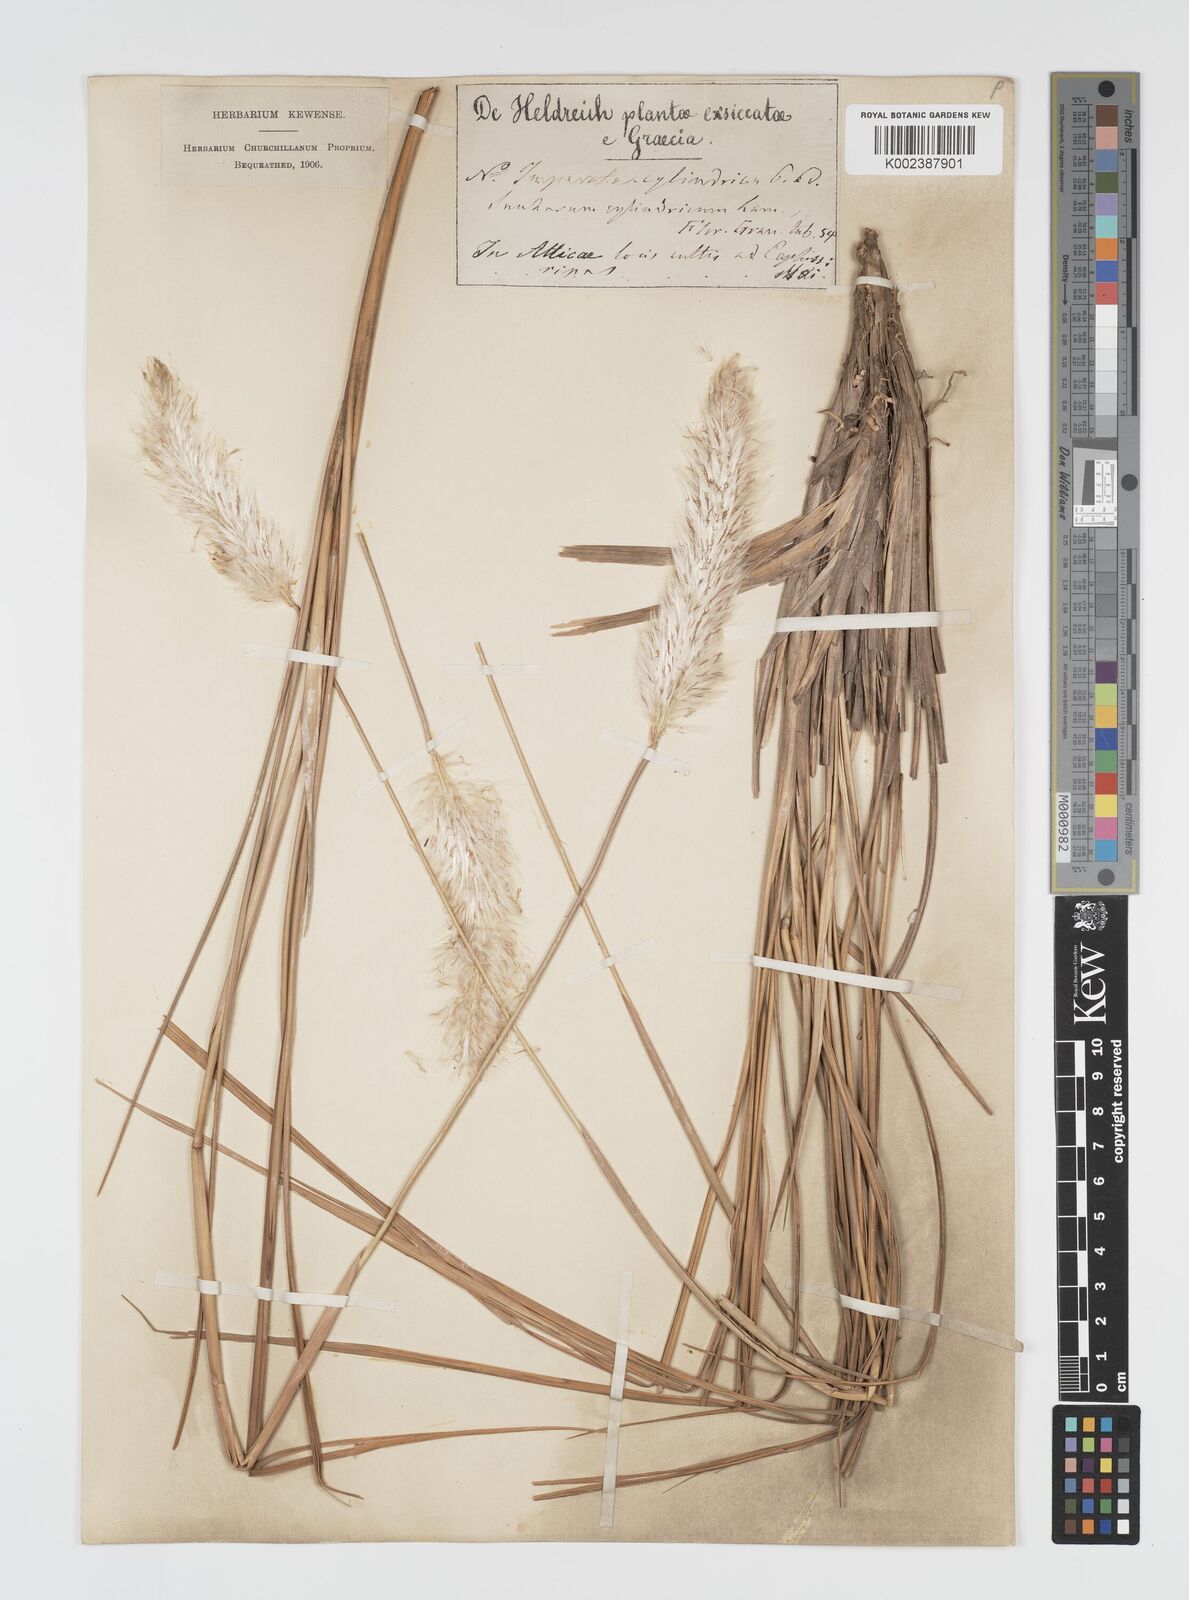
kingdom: Plantae
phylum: Tracheophyta
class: Liliopsida
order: Poales
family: Poaceae
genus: Imperata
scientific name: Imperata cylindrica
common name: Cogongrass
